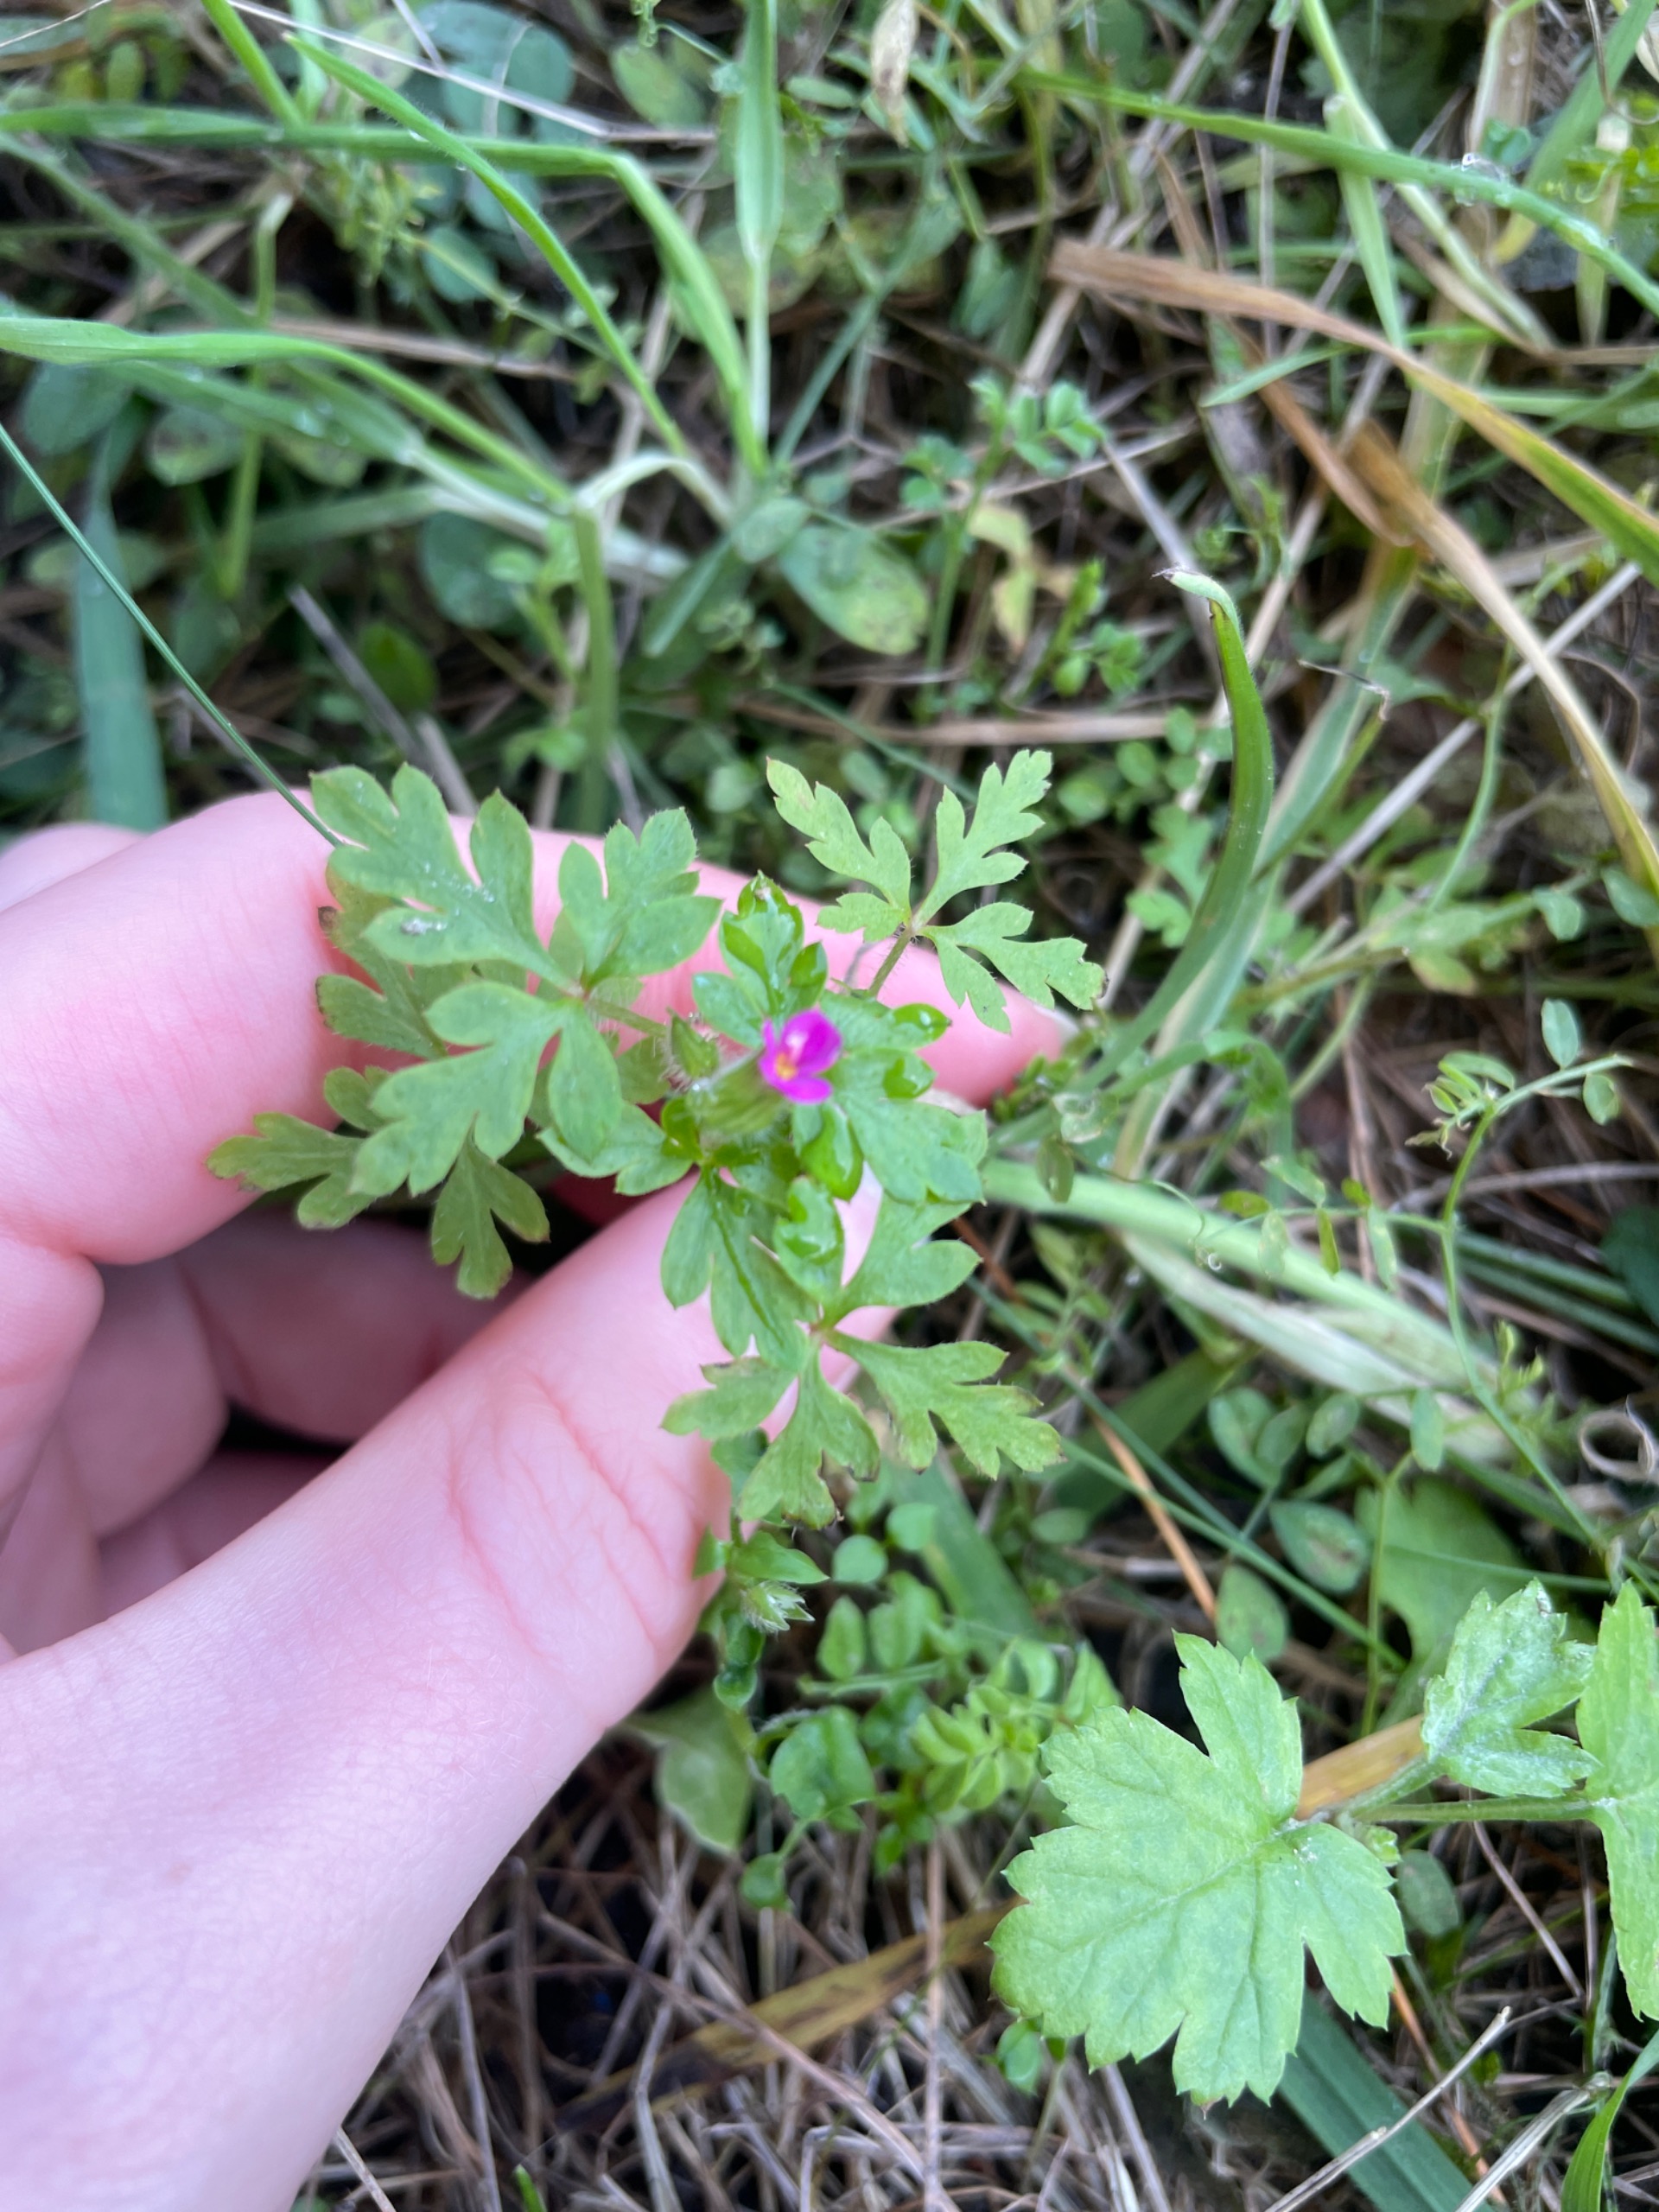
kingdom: Plantae
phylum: Tracheophyta
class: Magnoliopsida
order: Geraniales
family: Geraniaceae
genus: Geranium
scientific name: Geranium robertianum
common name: Stinkende storkenæb
